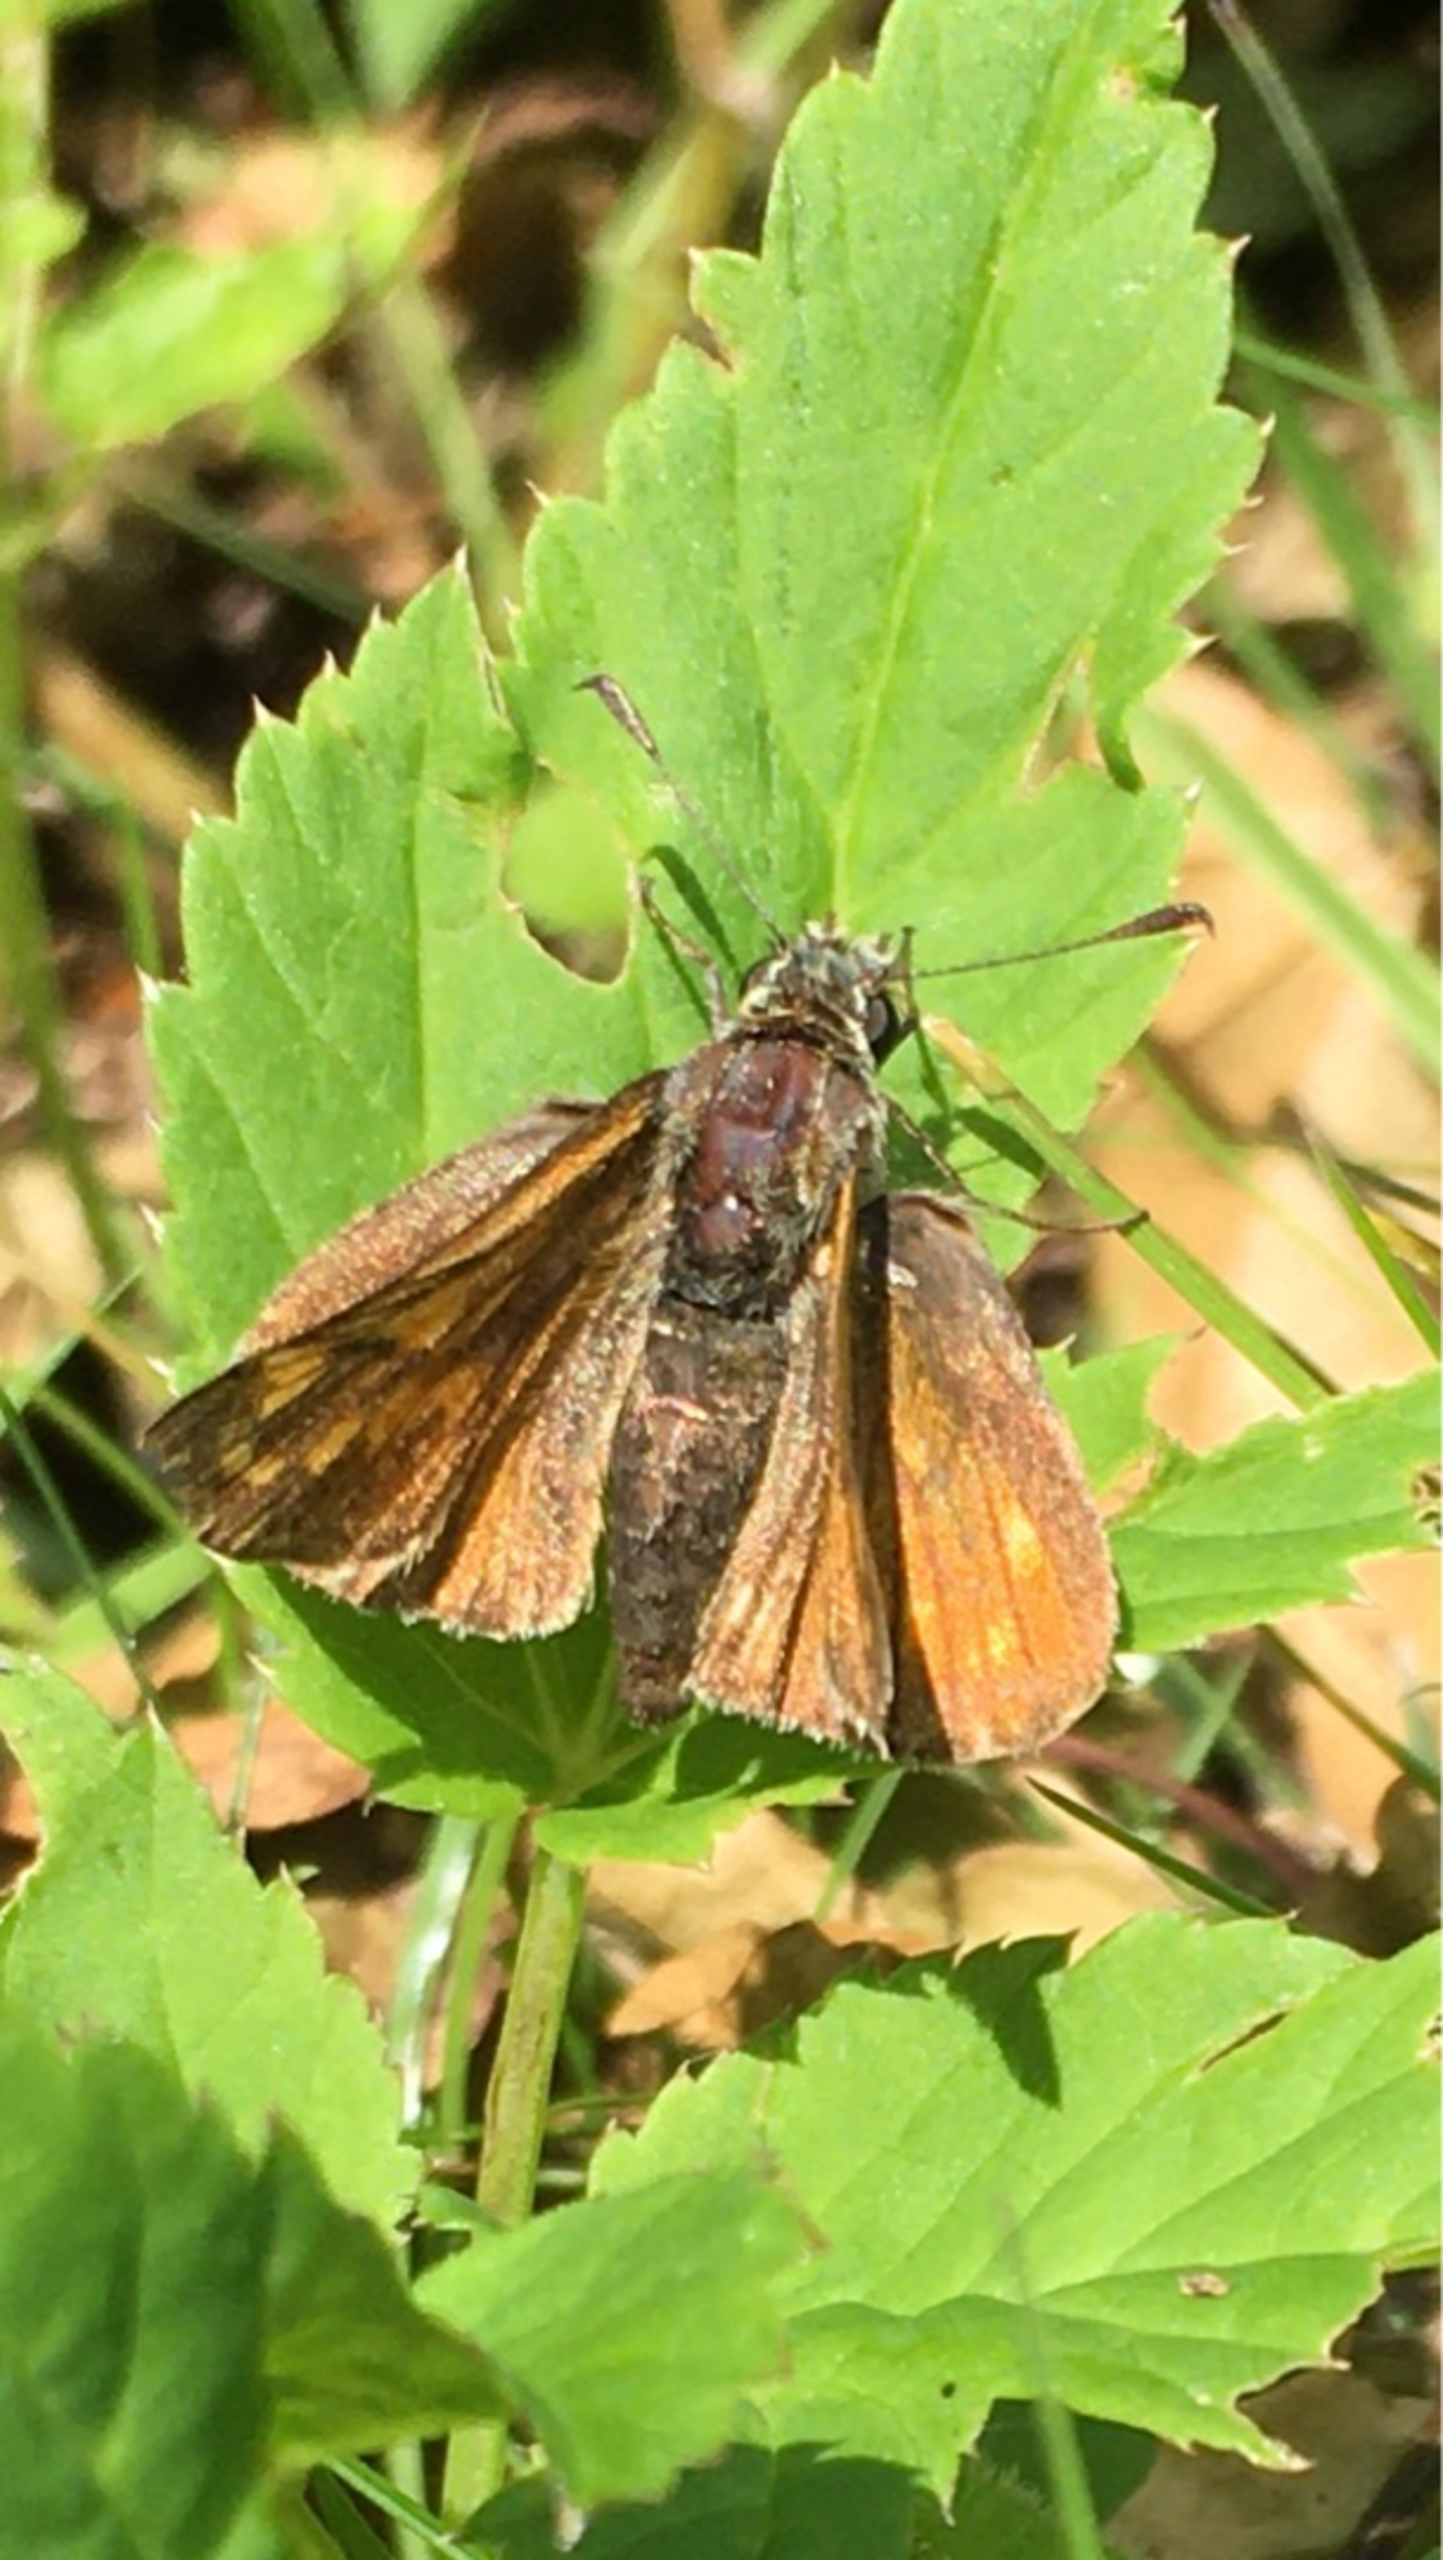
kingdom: Animalia
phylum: Arthropoda
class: Insecta
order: Lepidoptera
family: Hesperiidae
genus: Ochlodes
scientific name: Ochlodes venata
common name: Stor bredpande
